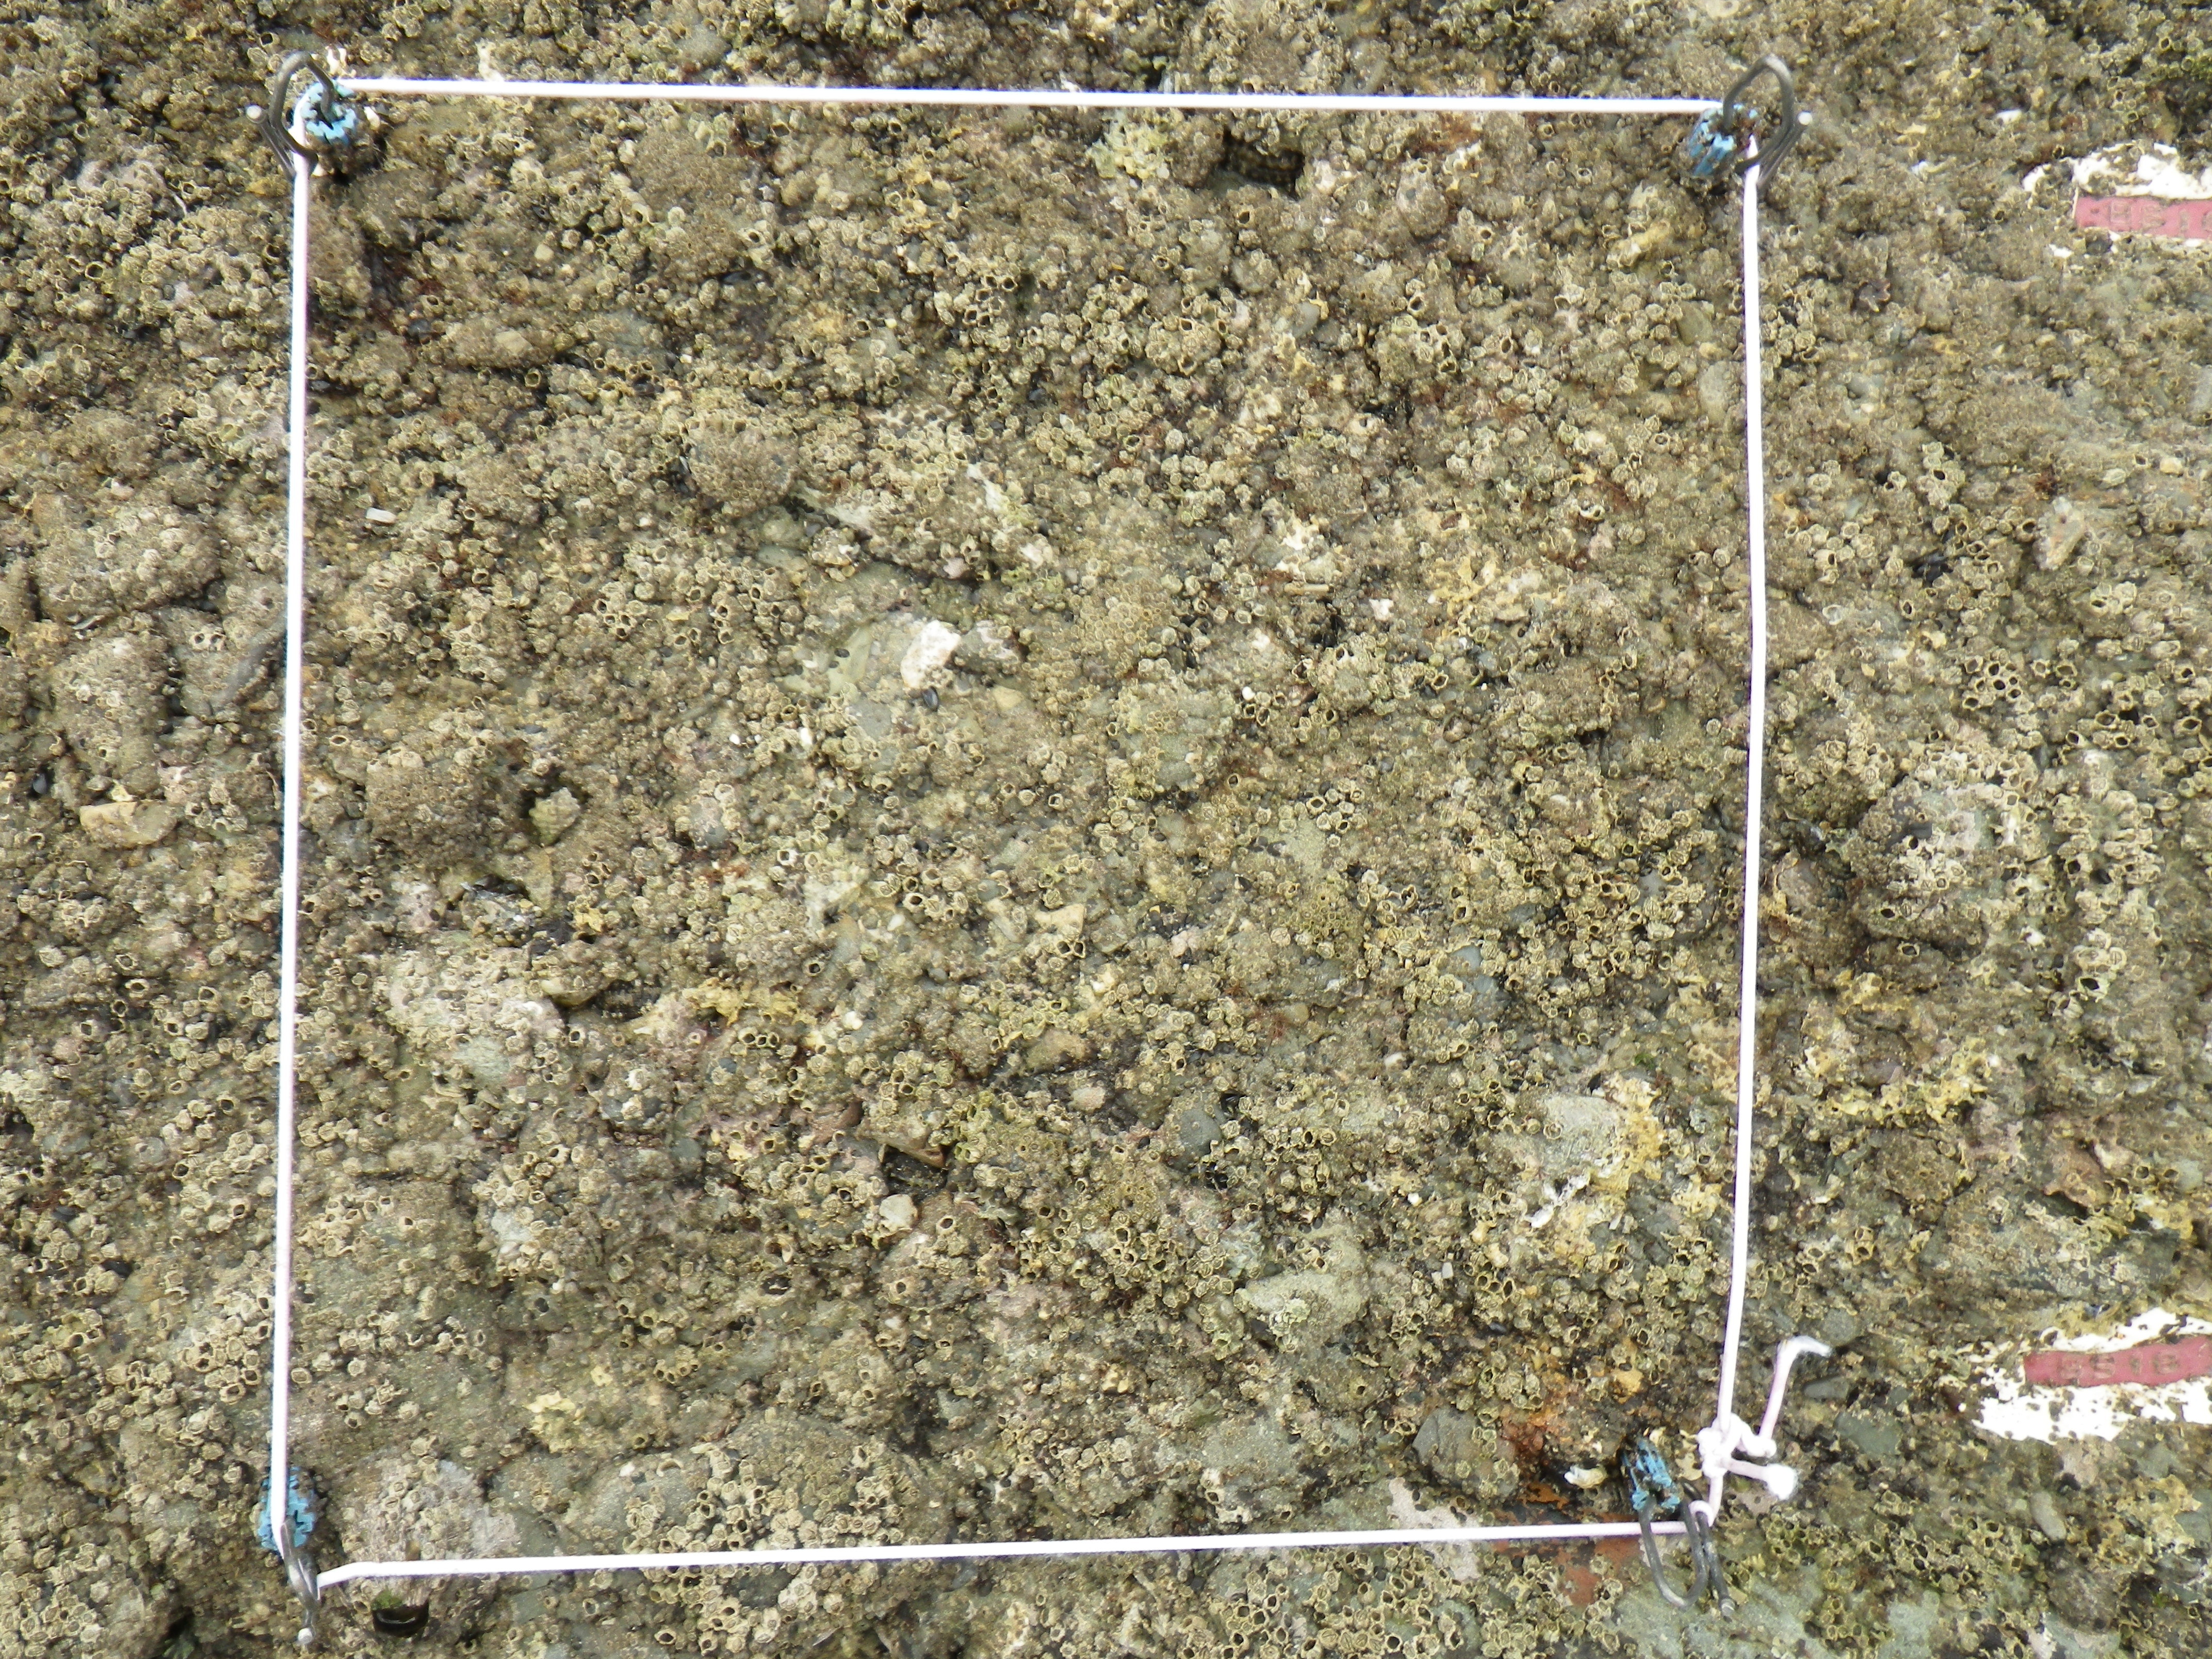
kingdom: Animalia
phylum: Arthropoda
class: Maxillopoda
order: Sessilia
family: Chthamalidae
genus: Chthamalus
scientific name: Chthamalus challengeri
